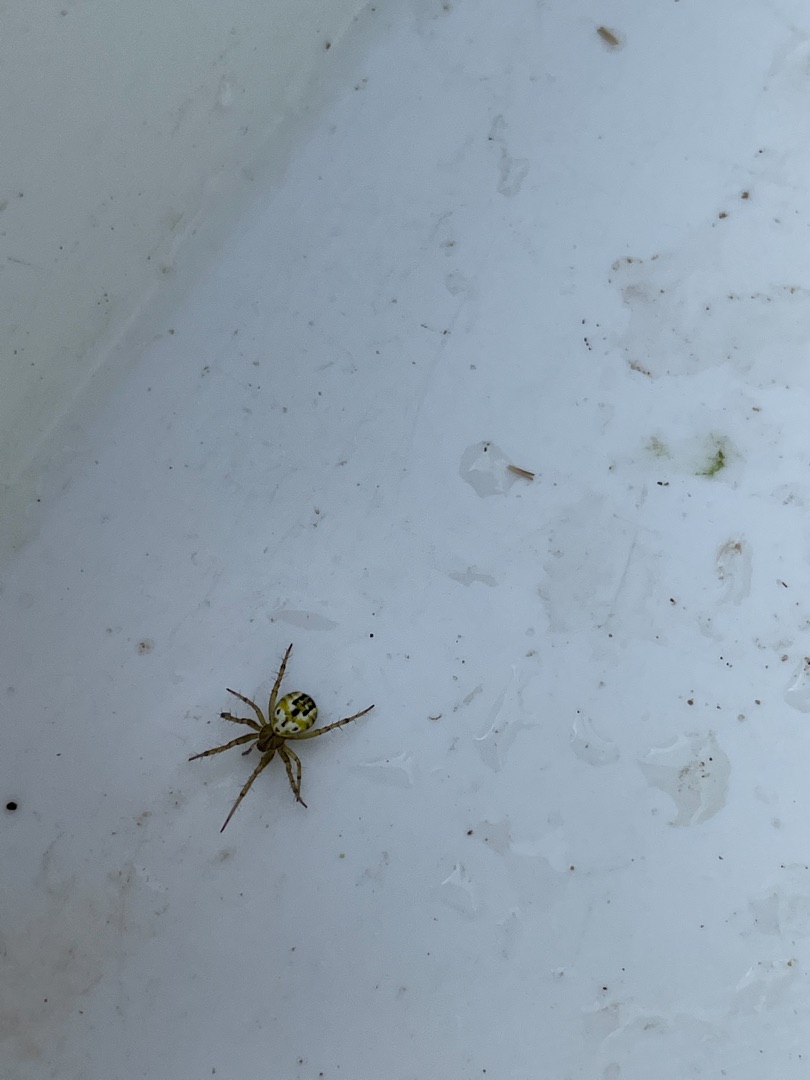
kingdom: Animalia
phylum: Arthropoda
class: Arachnida
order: Araneae
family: Araneidae
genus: Mangora
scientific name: Mangora acalypha
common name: Sortstribet hedehjulspinder
